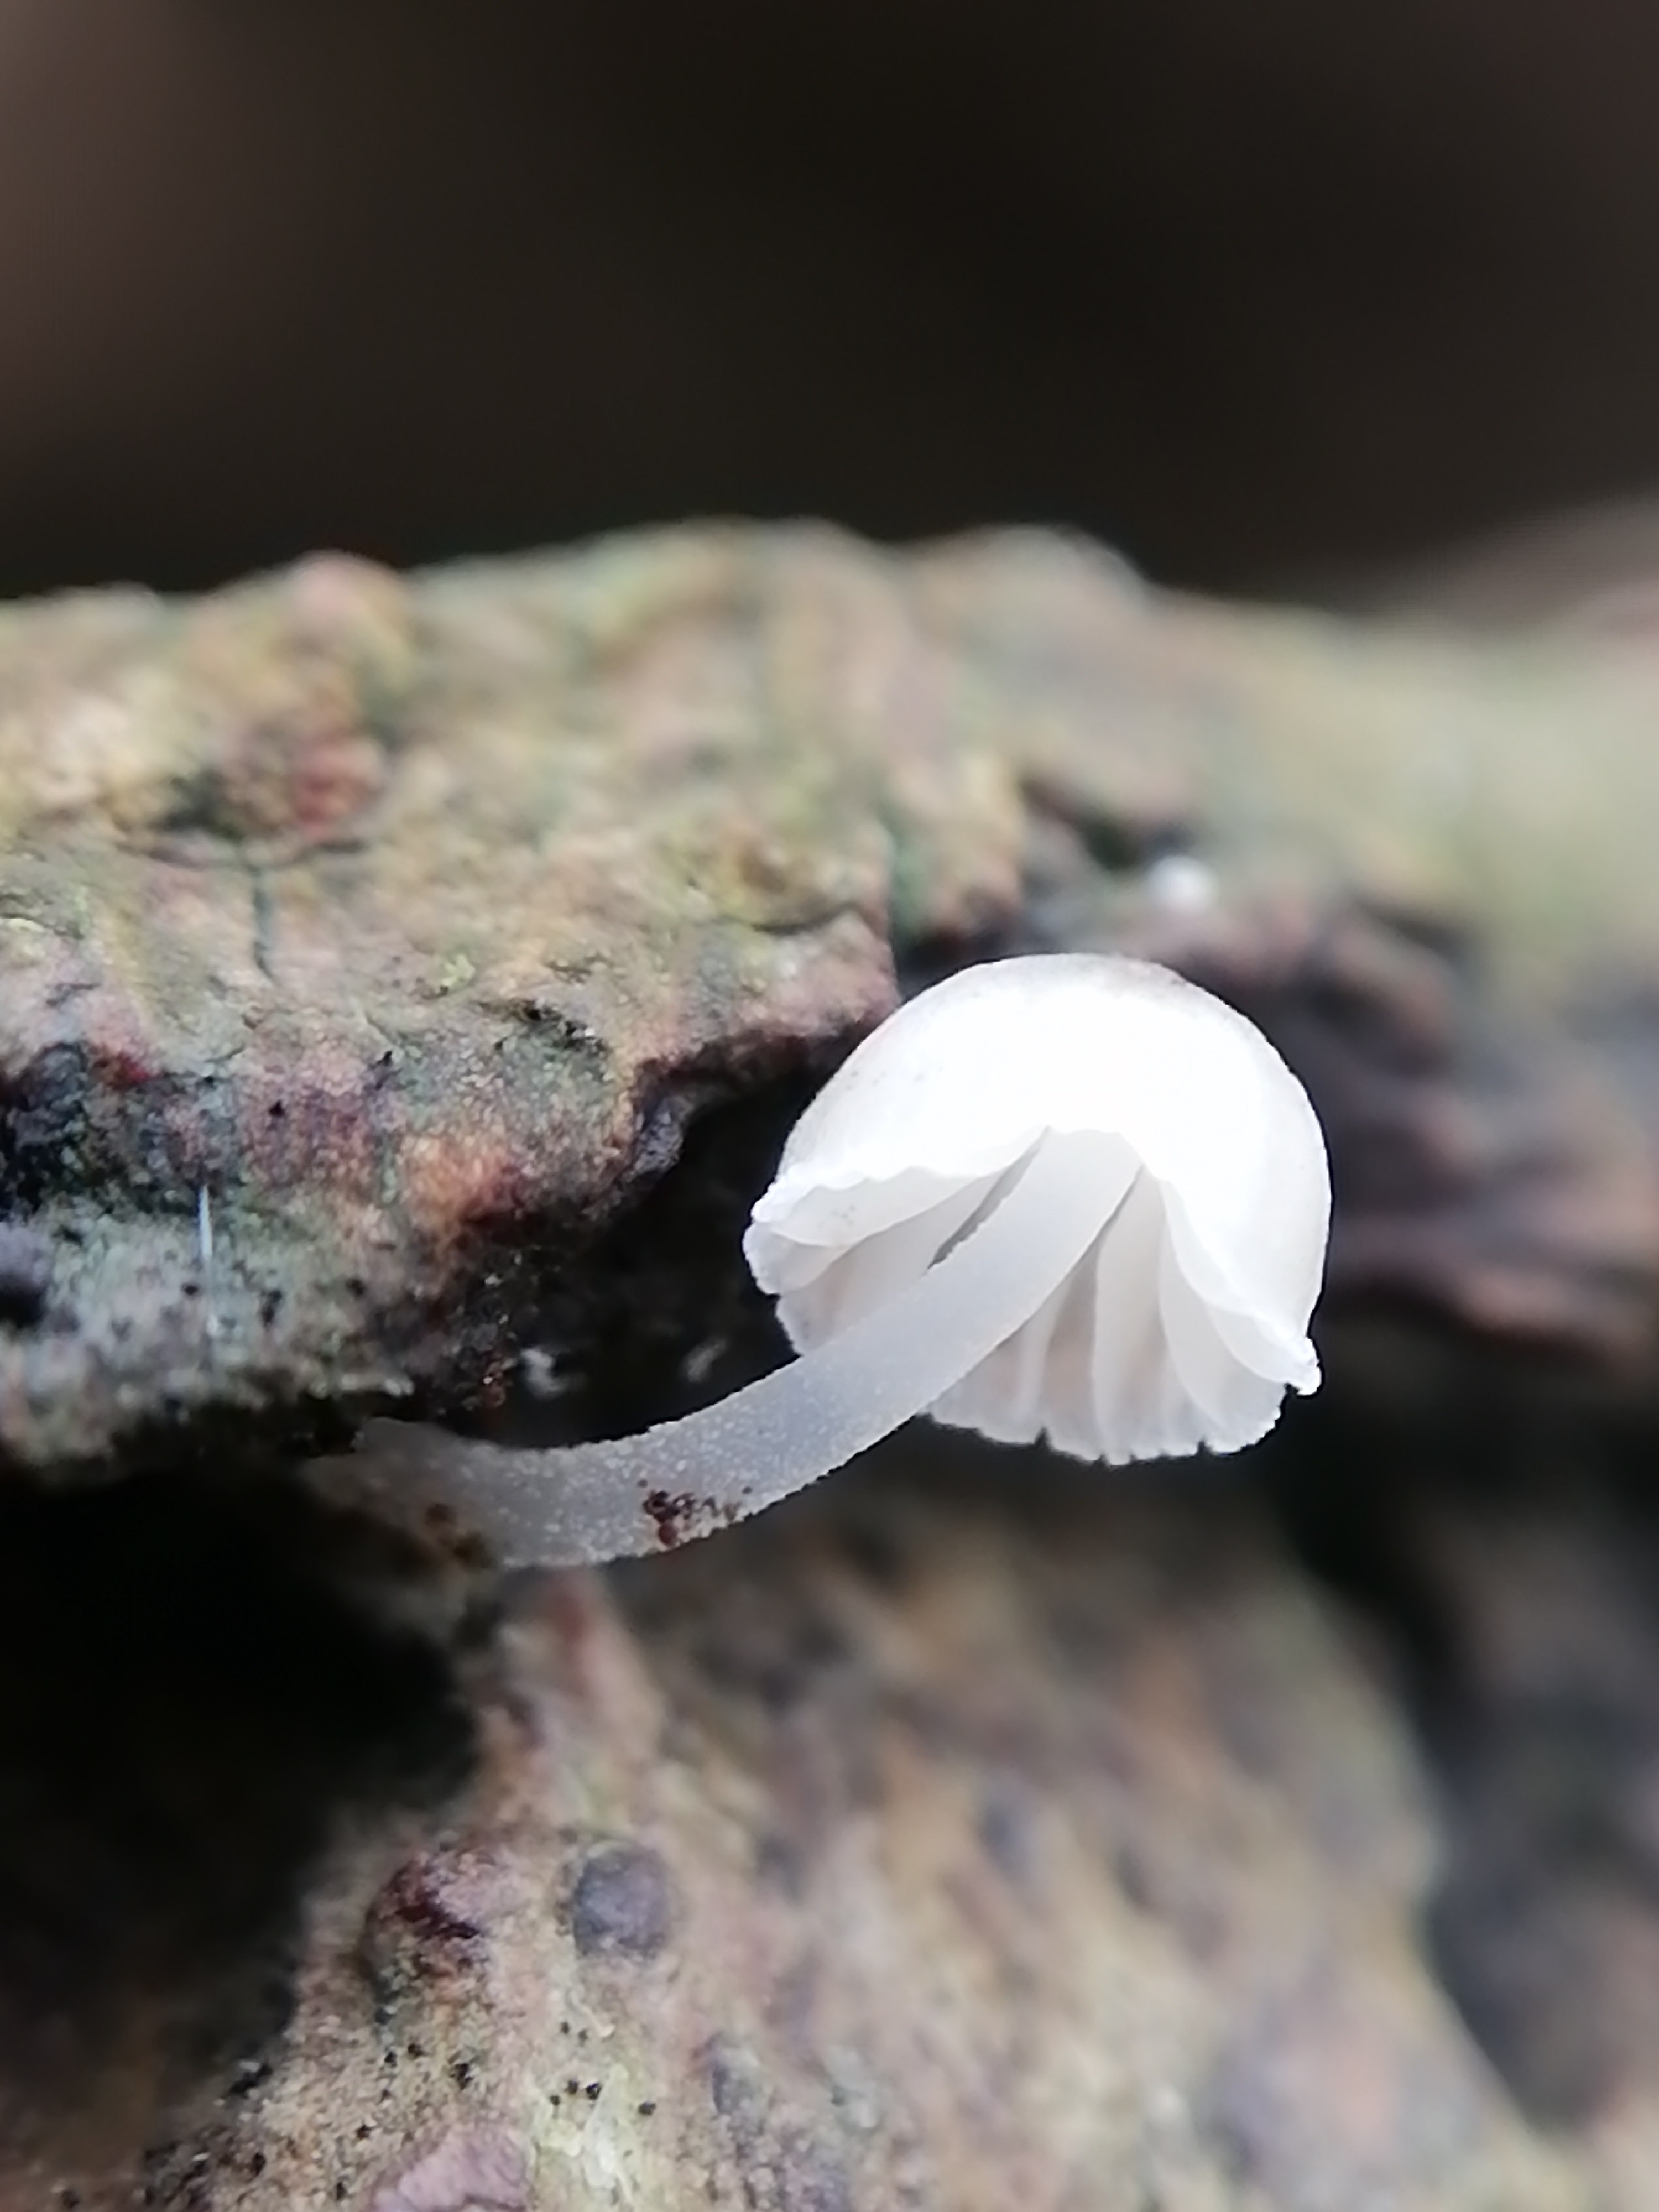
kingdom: Fungi
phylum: Basidiomycota
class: Agaricomycetes
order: Agaricales
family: Mycenaceae
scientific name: Mycenaceae
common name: huesvampfamilien
